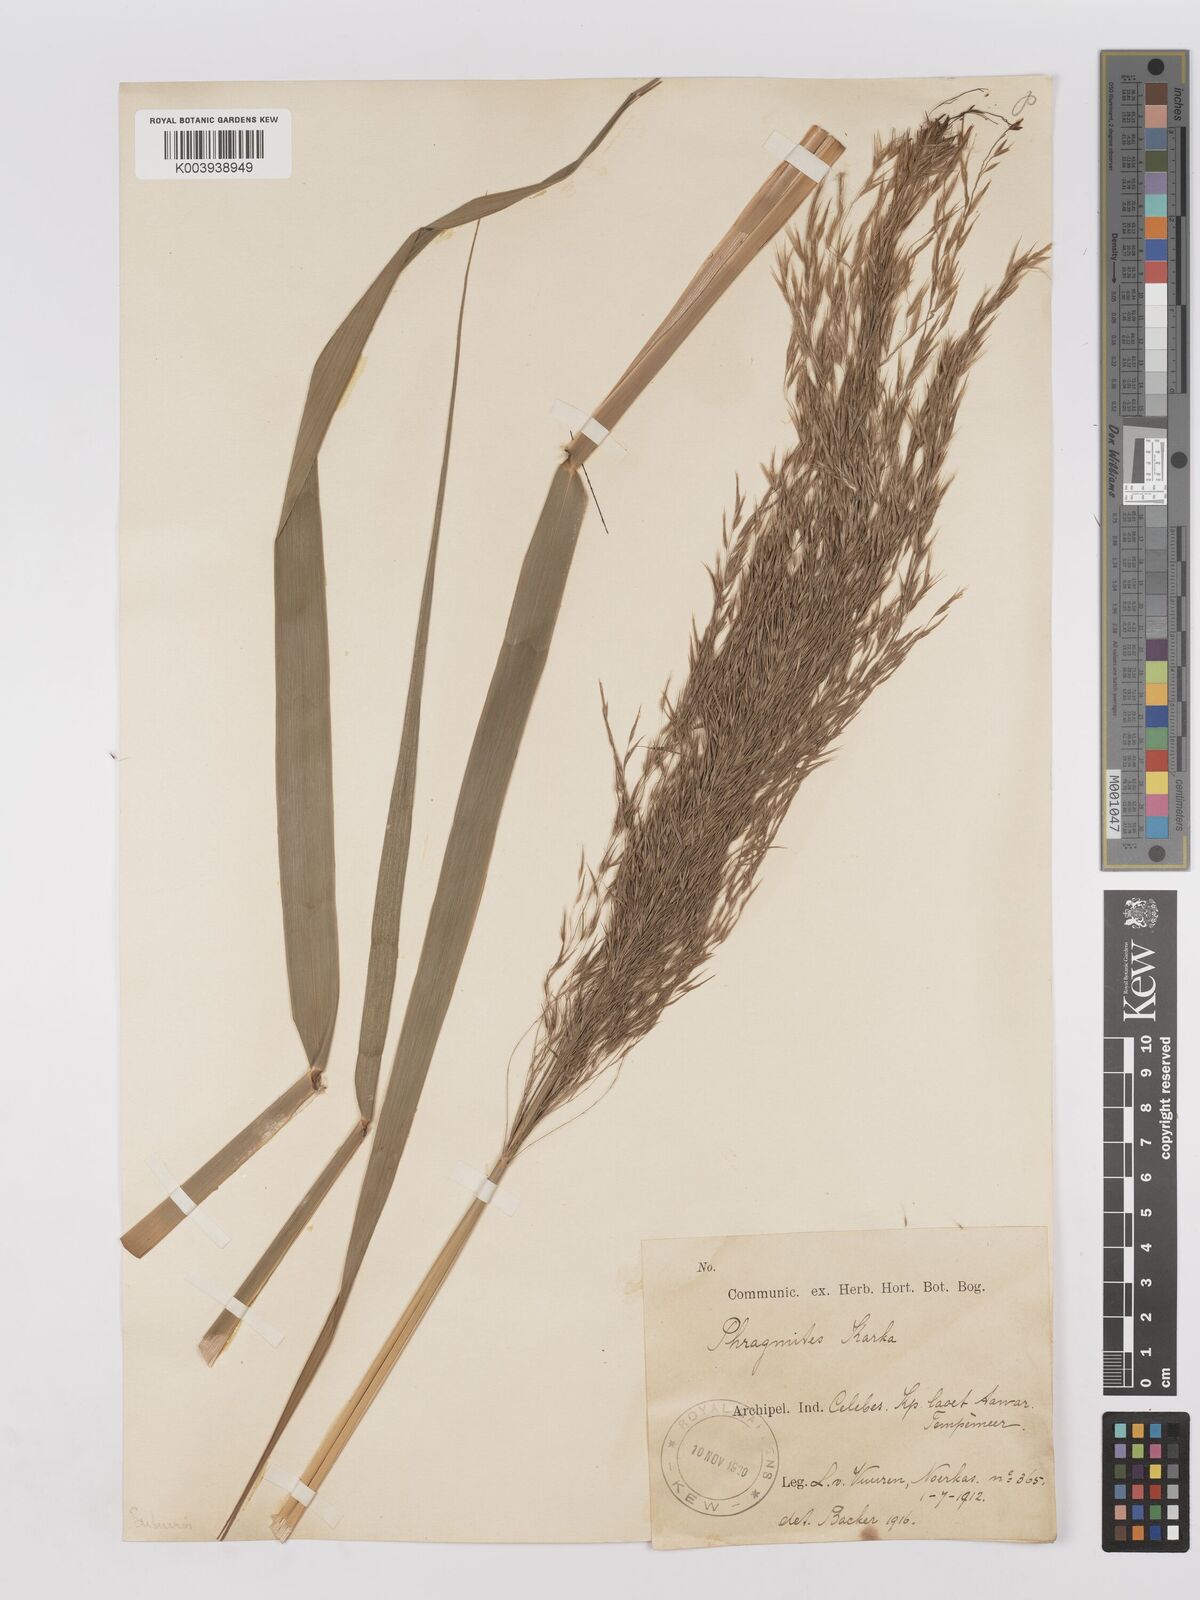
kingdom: Plantae
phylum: Tracheophyta
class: Liliopsida
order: Poales
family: Poaceae
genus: Phragmites
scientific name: Phragmites karka
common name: Tropical reed
